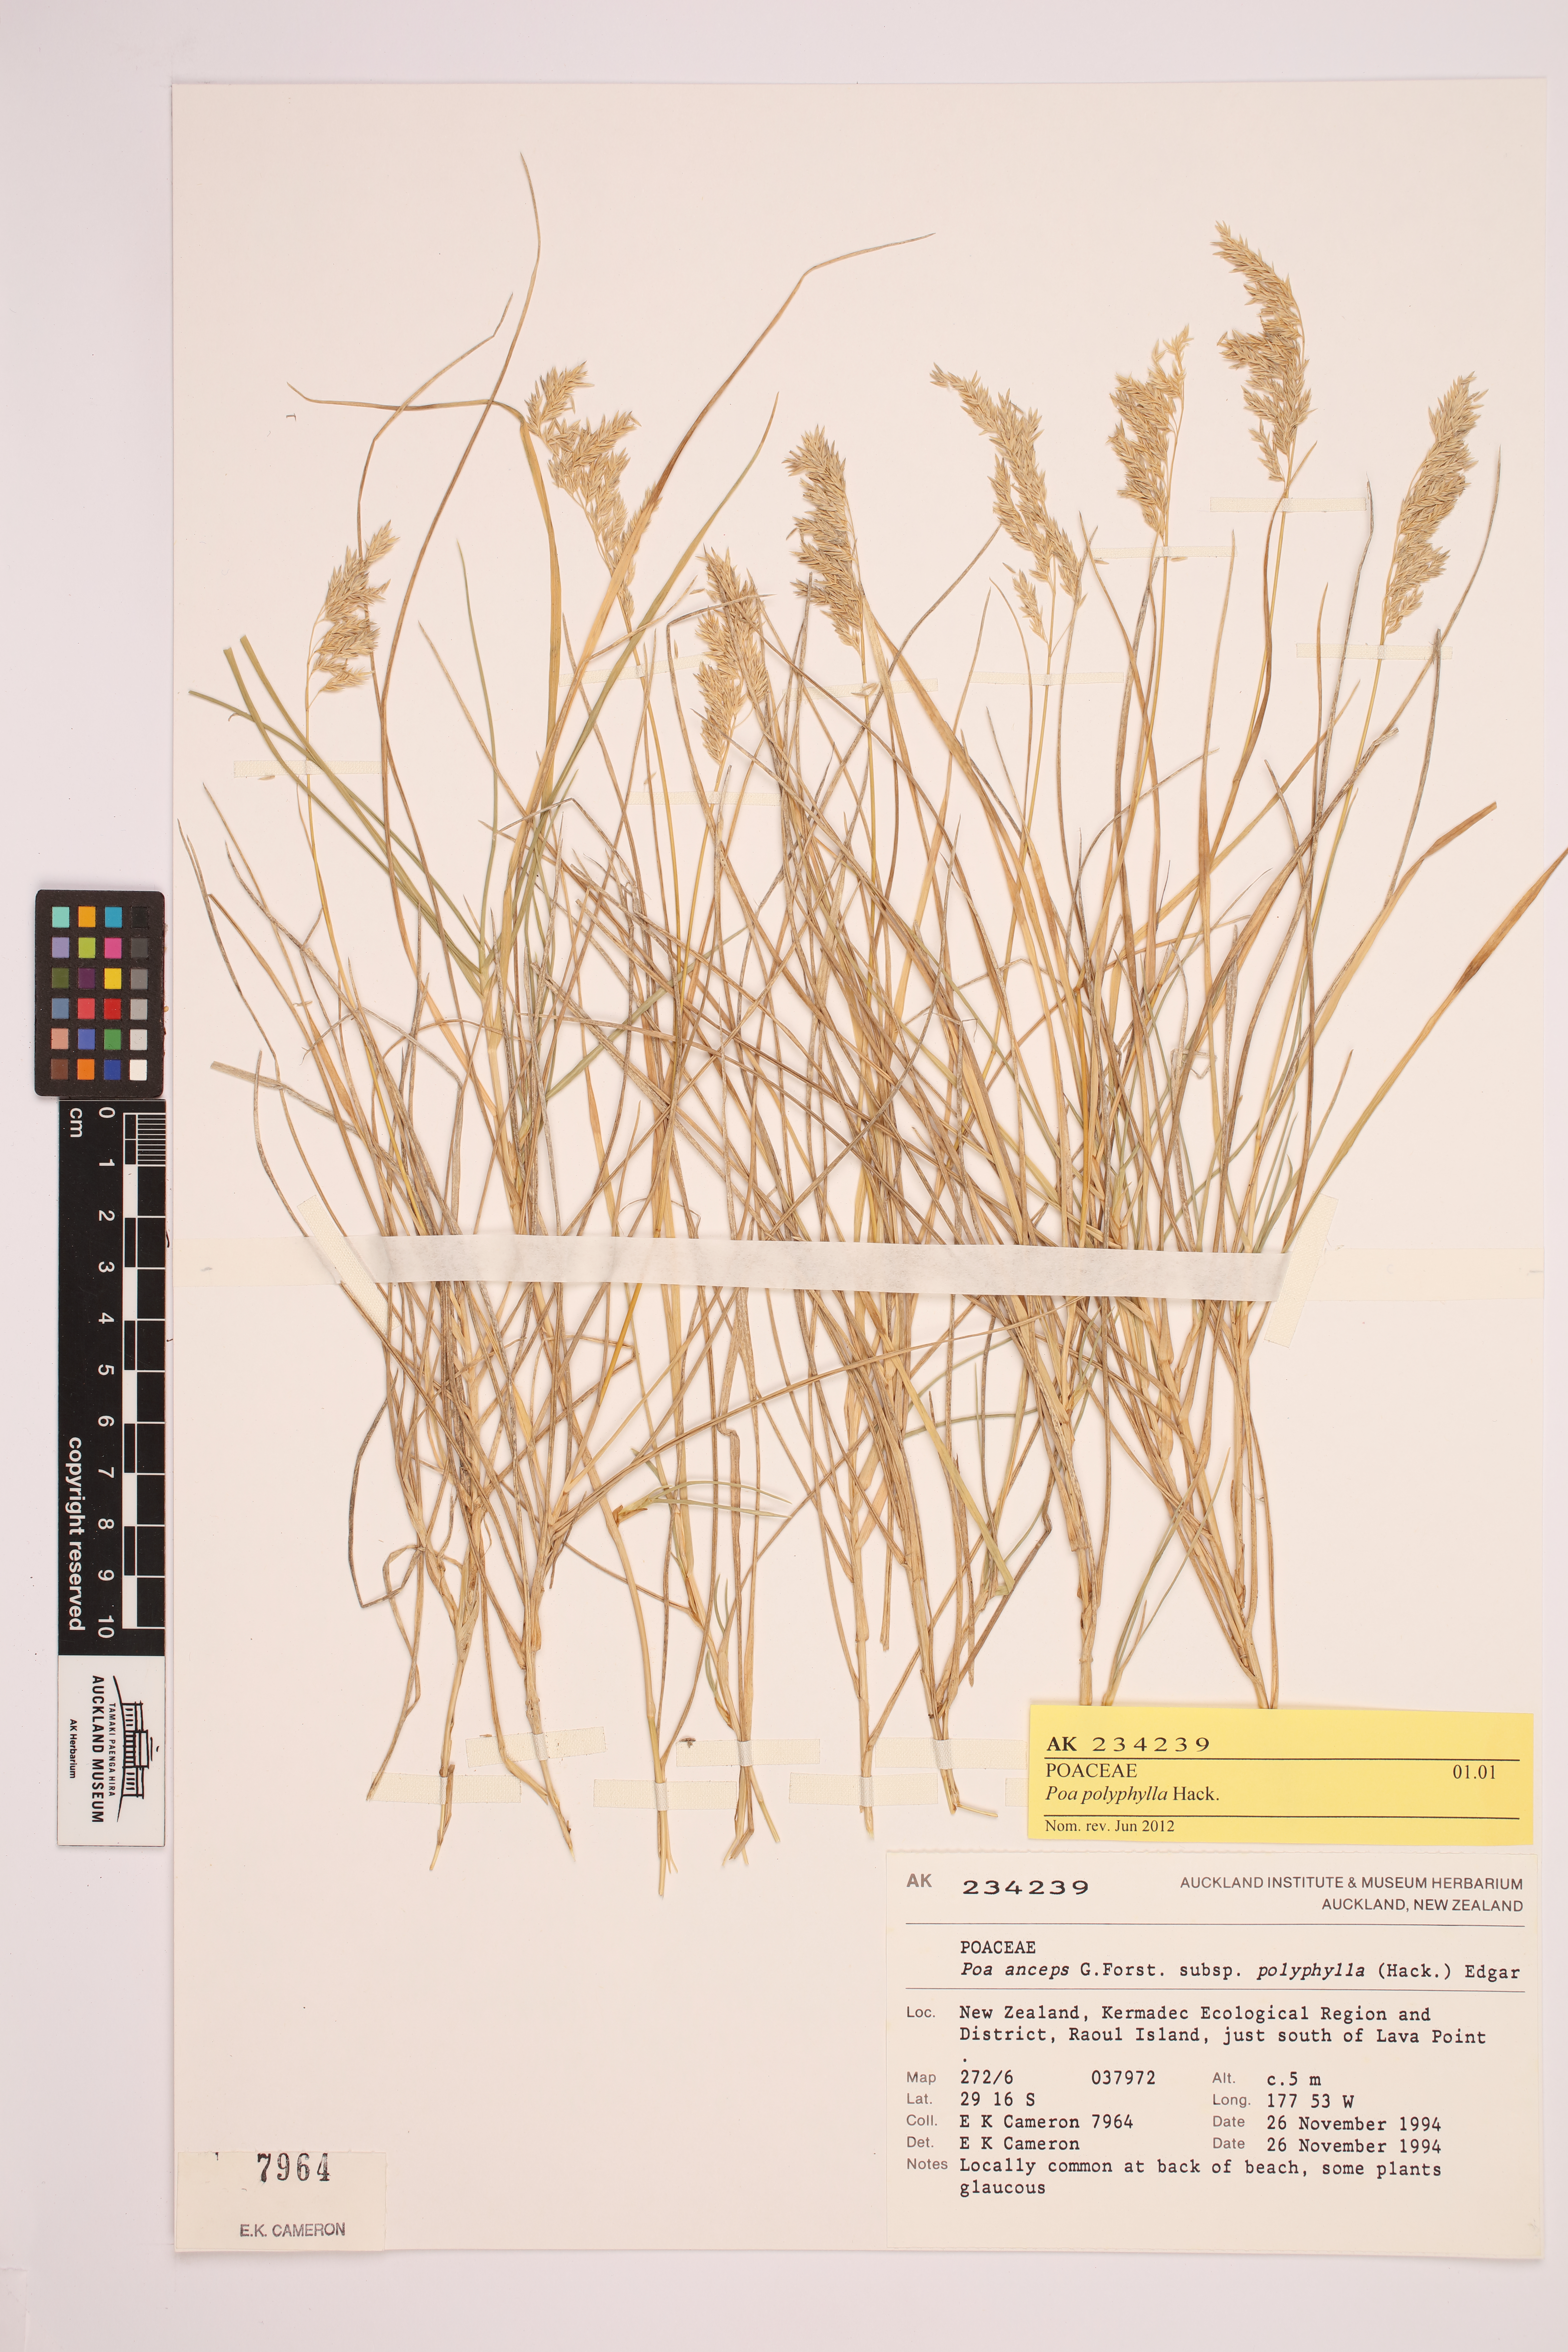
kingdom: Plantae
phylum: Tracheophyta
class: Liliopsida
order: Poales
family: Poaceae
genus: Poa
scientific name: Poa anceps
